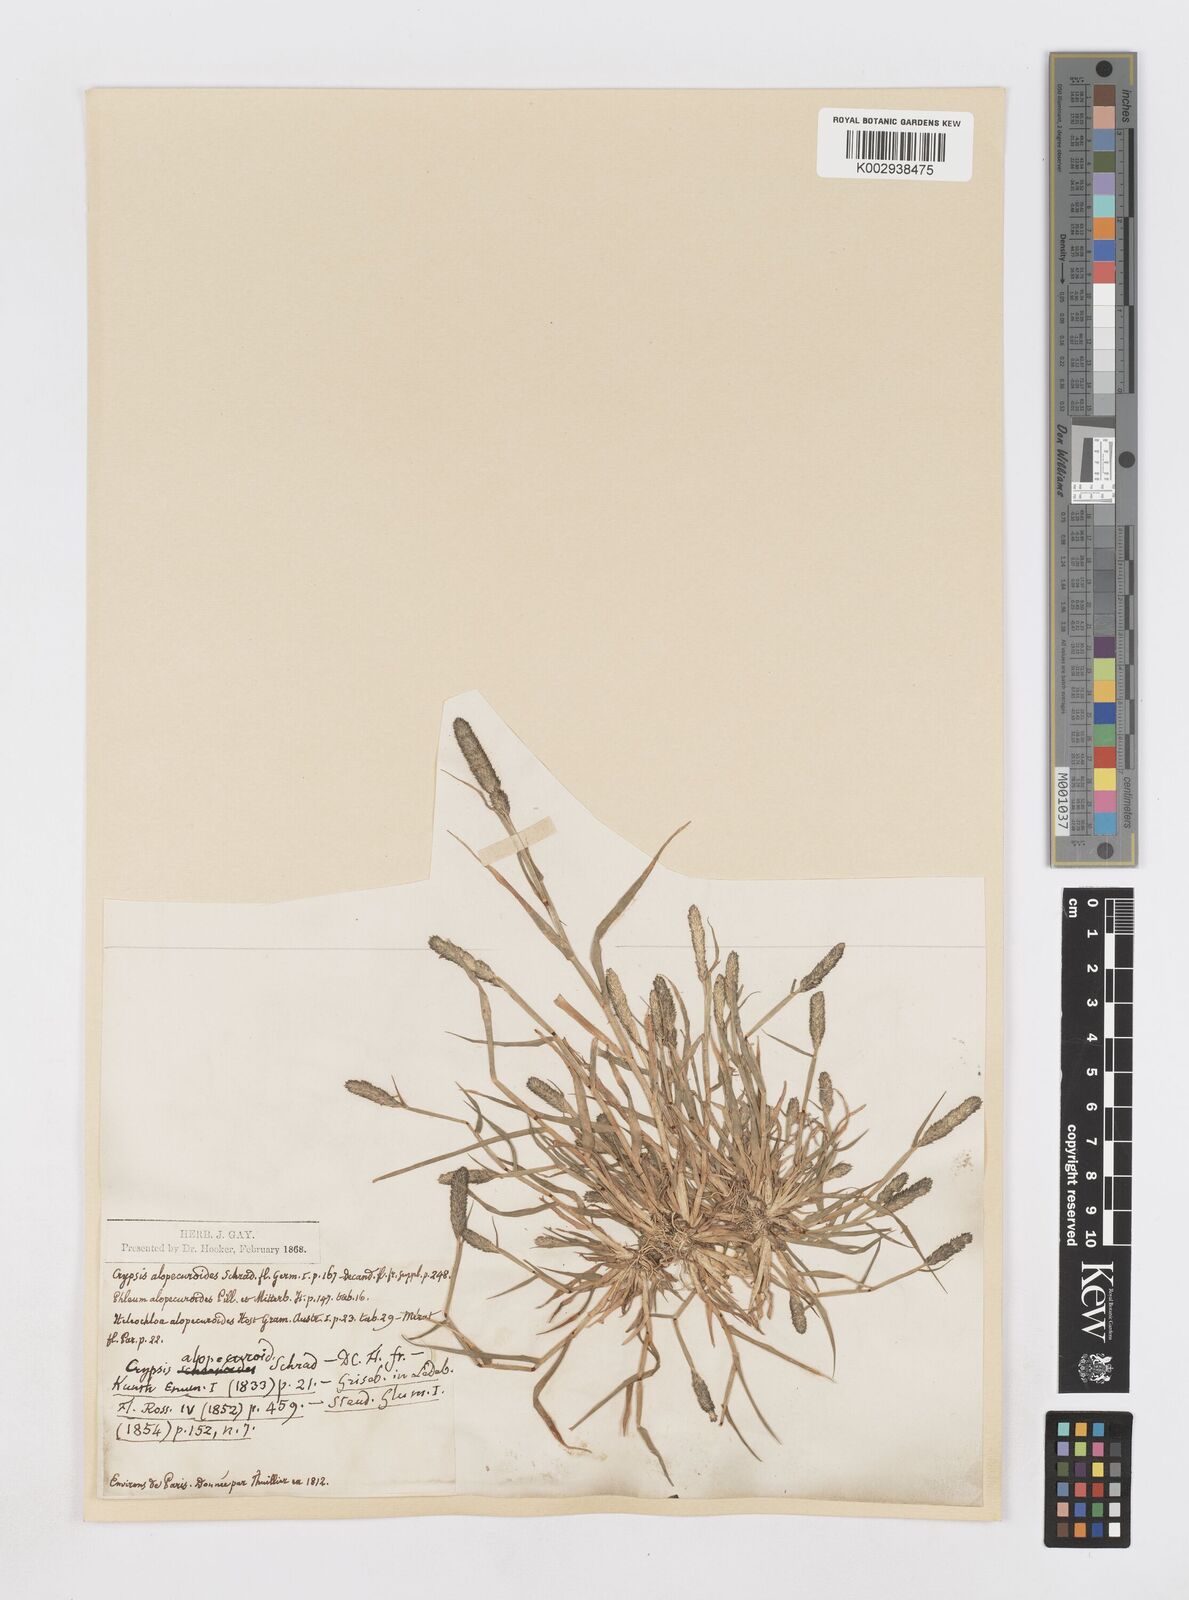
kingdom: Plantae
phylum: Tracheophyta
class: Liliopsida
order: Poales
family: Poaceae
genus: Sporobolus
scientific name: Sporobolus alopecuroides
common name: Foxtail pricklegrass
